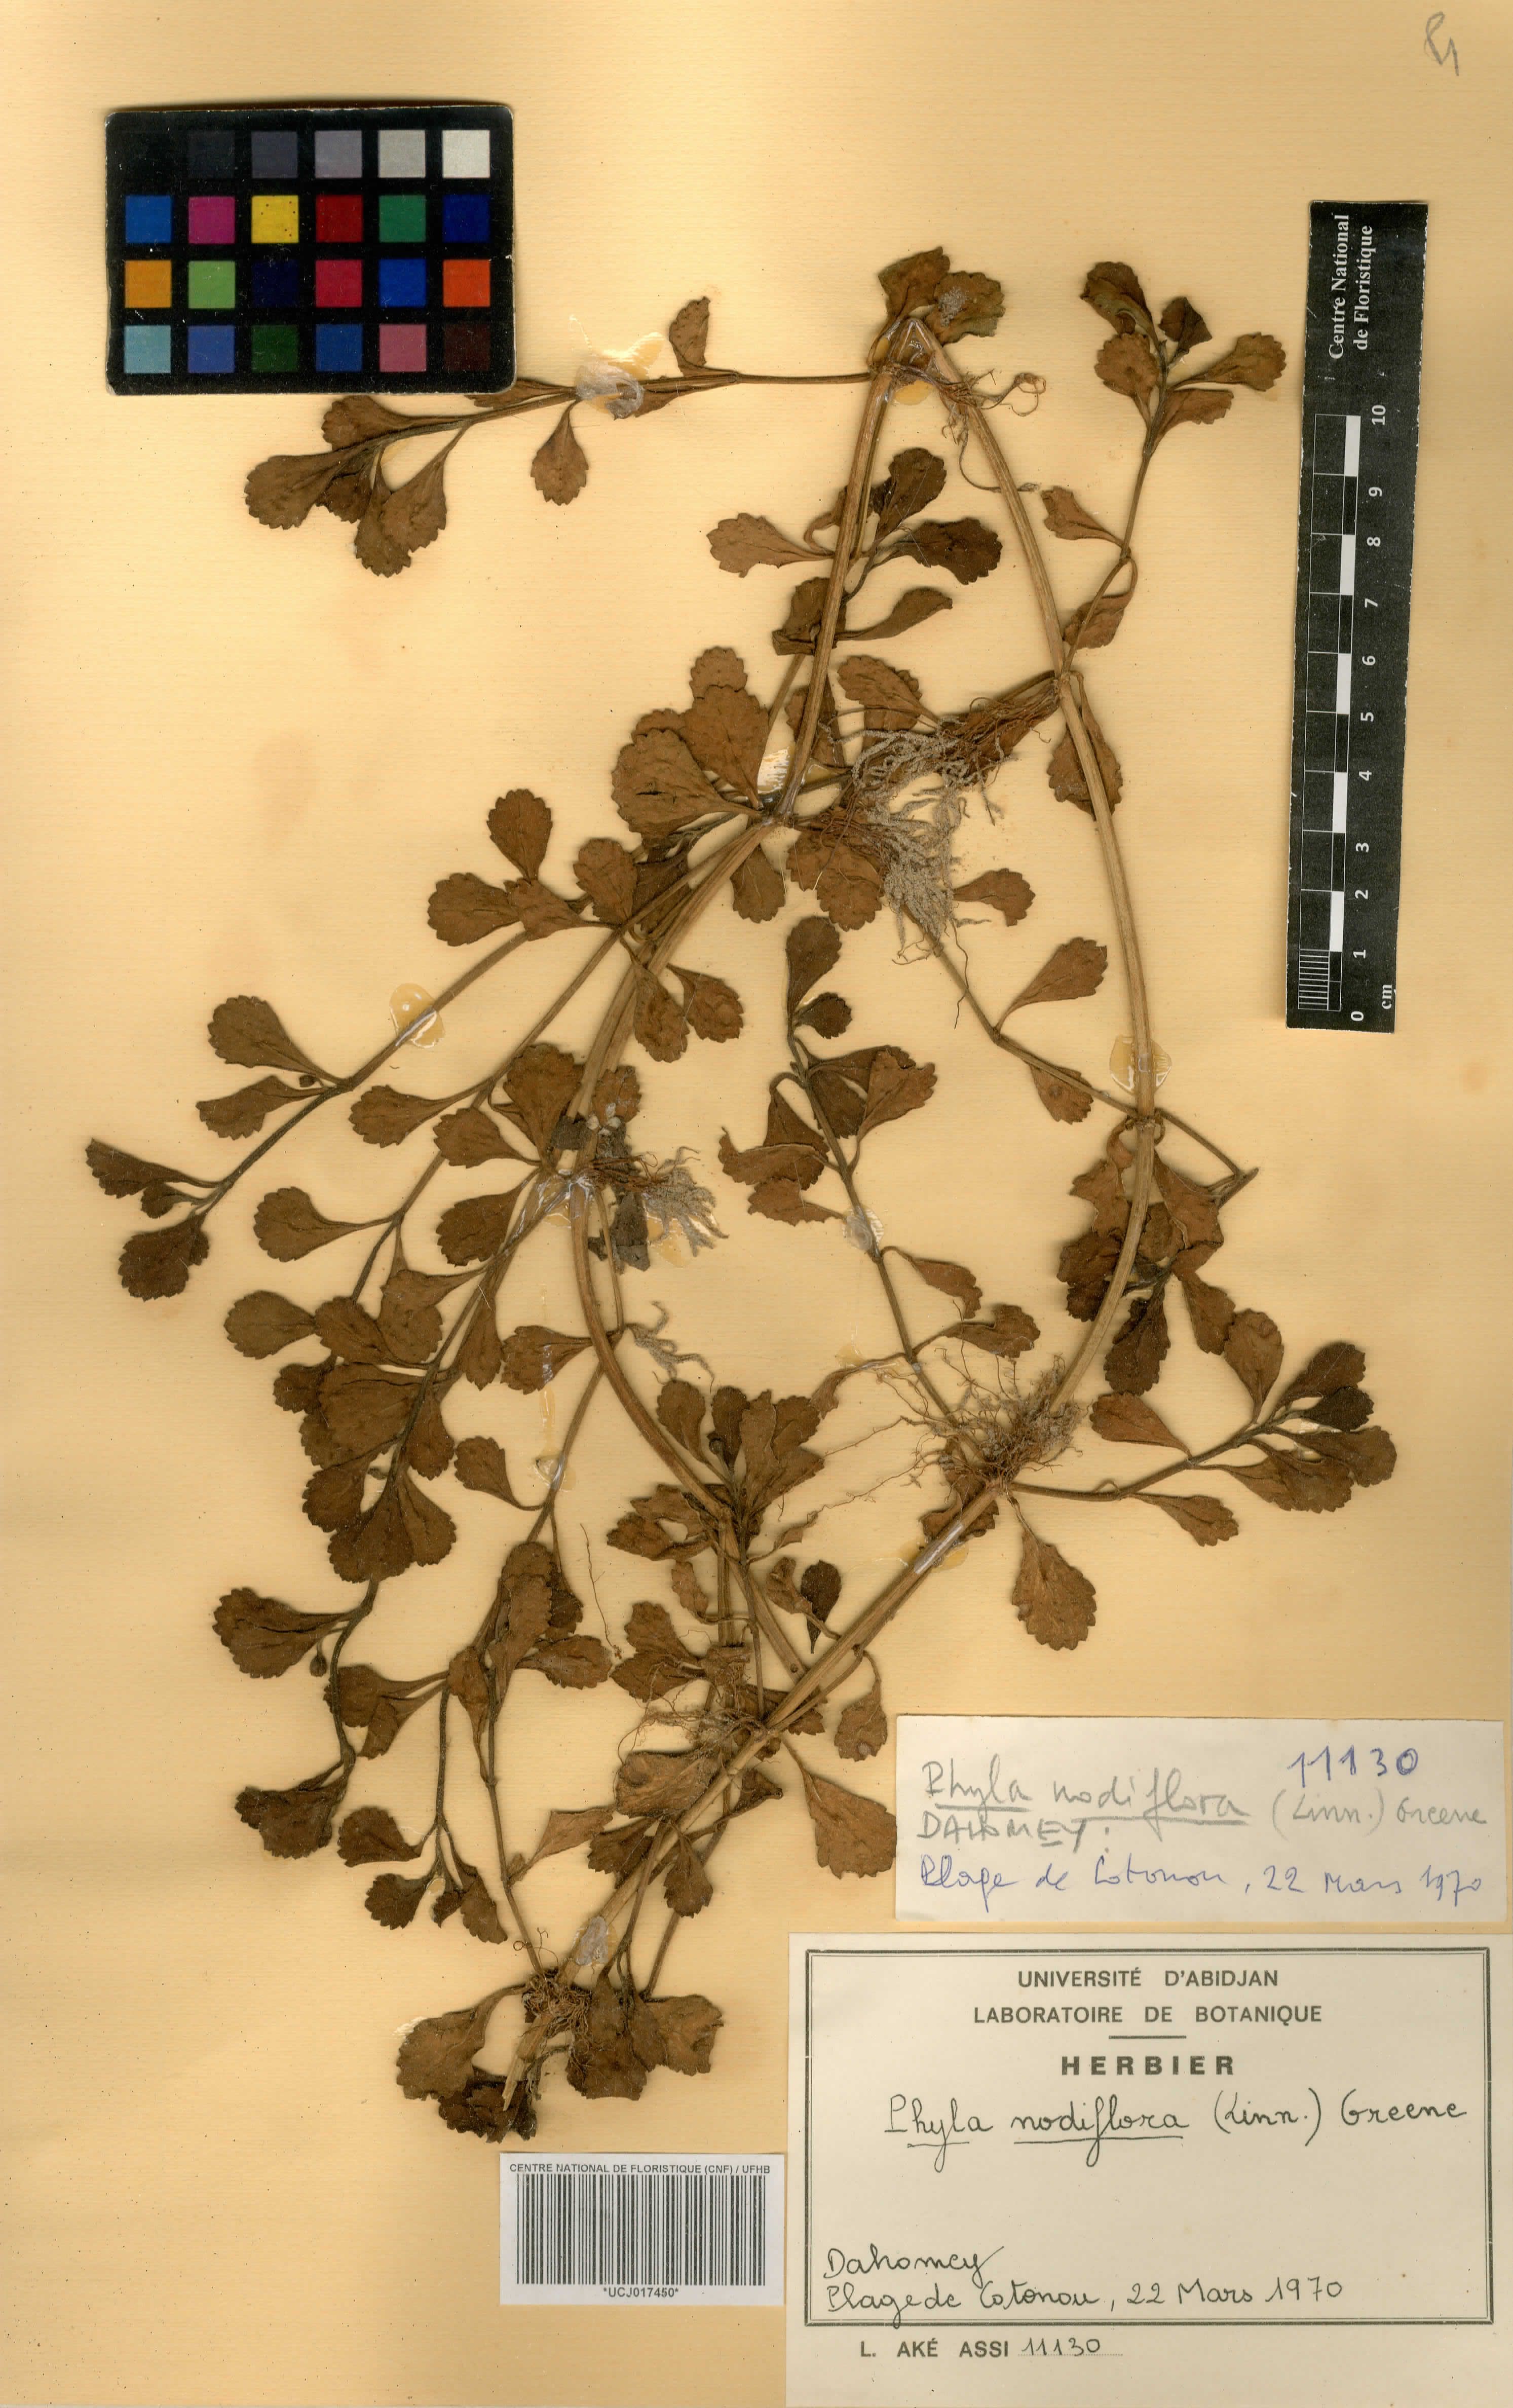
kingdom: Plantae
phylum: Tracheophyta
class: Magnoliopsida
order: Lamiales
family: Verbenaceae
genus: Phyla
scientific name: Phyla nodiflora
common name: Frogfruit
